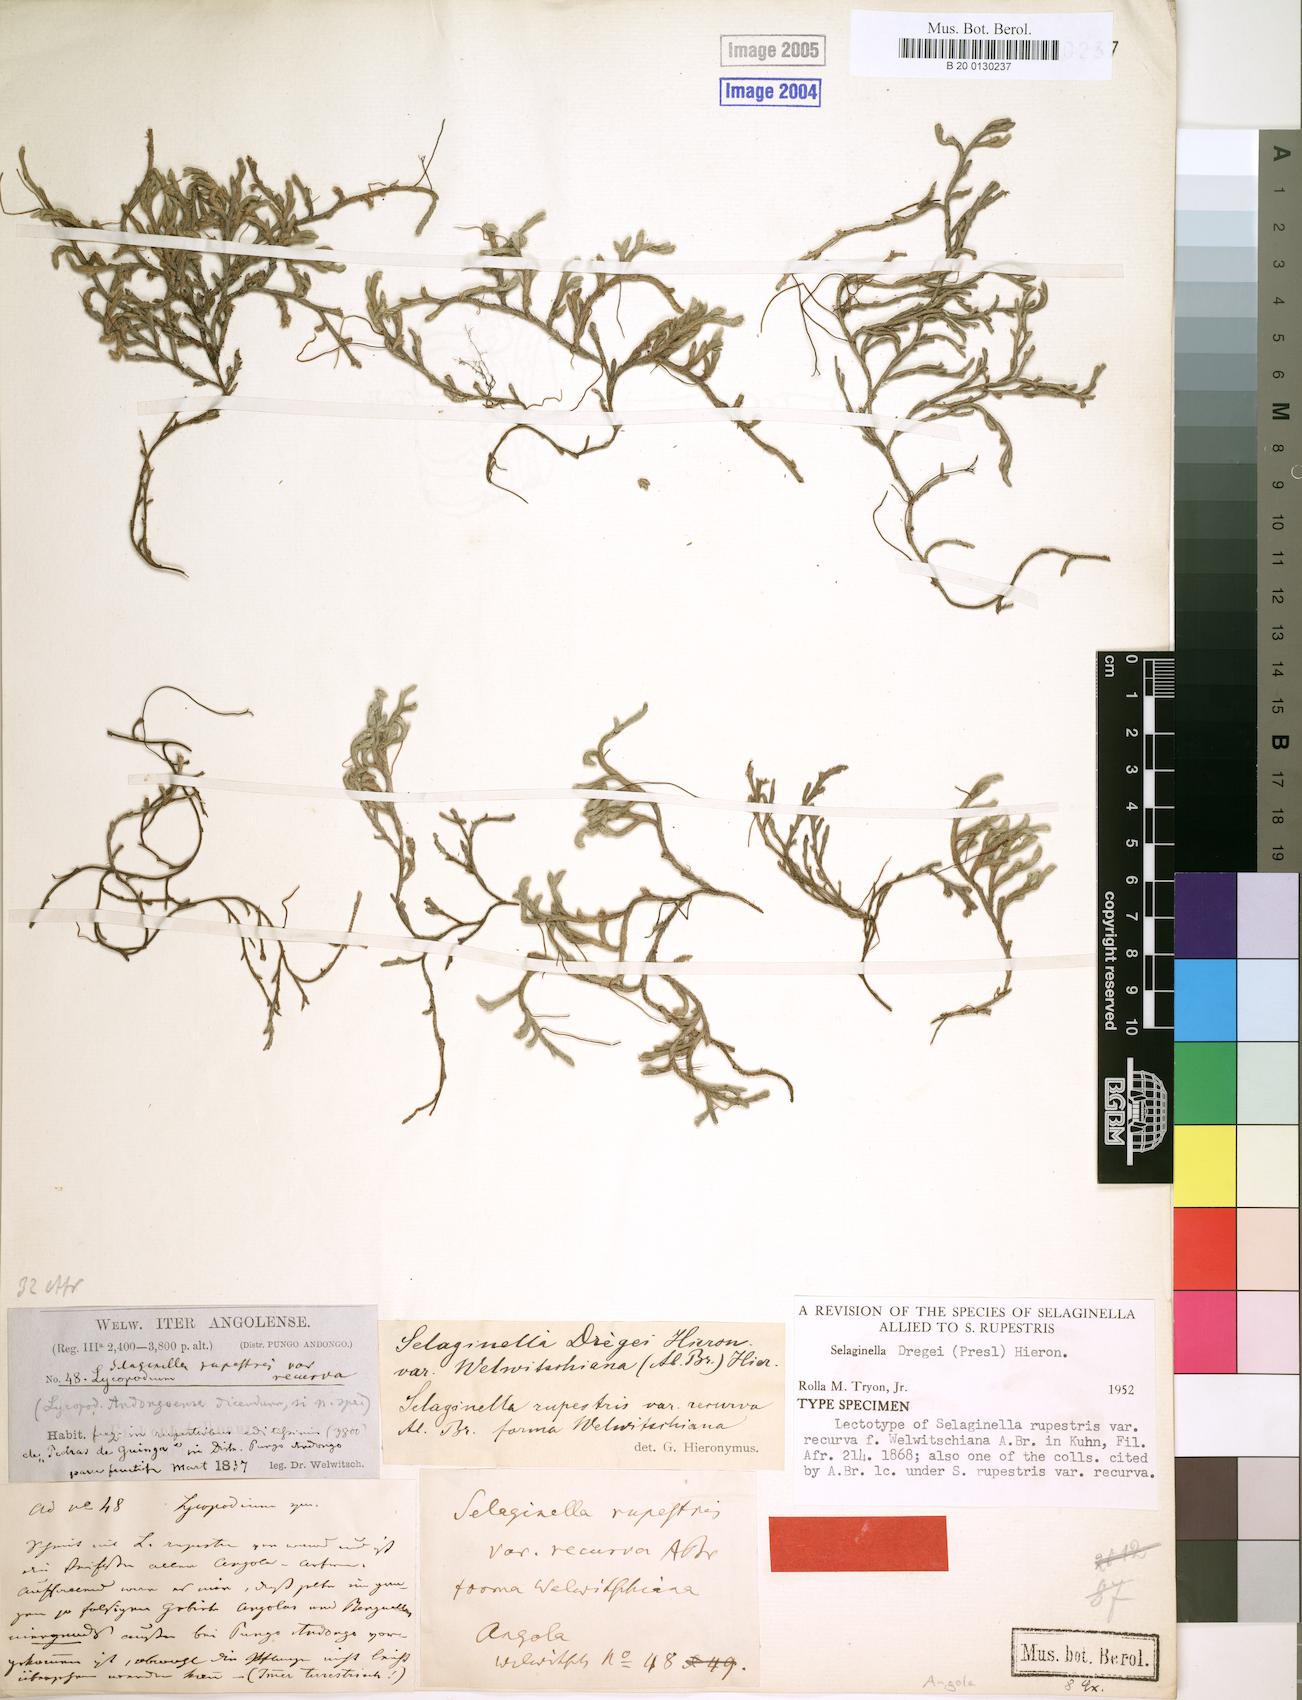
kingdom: Plantae
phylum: Tracheophyta
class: Lycopodiopsida
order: Selaginellales
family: Selaginellaceae
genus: Selaginella
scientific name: Selaginella dregei
